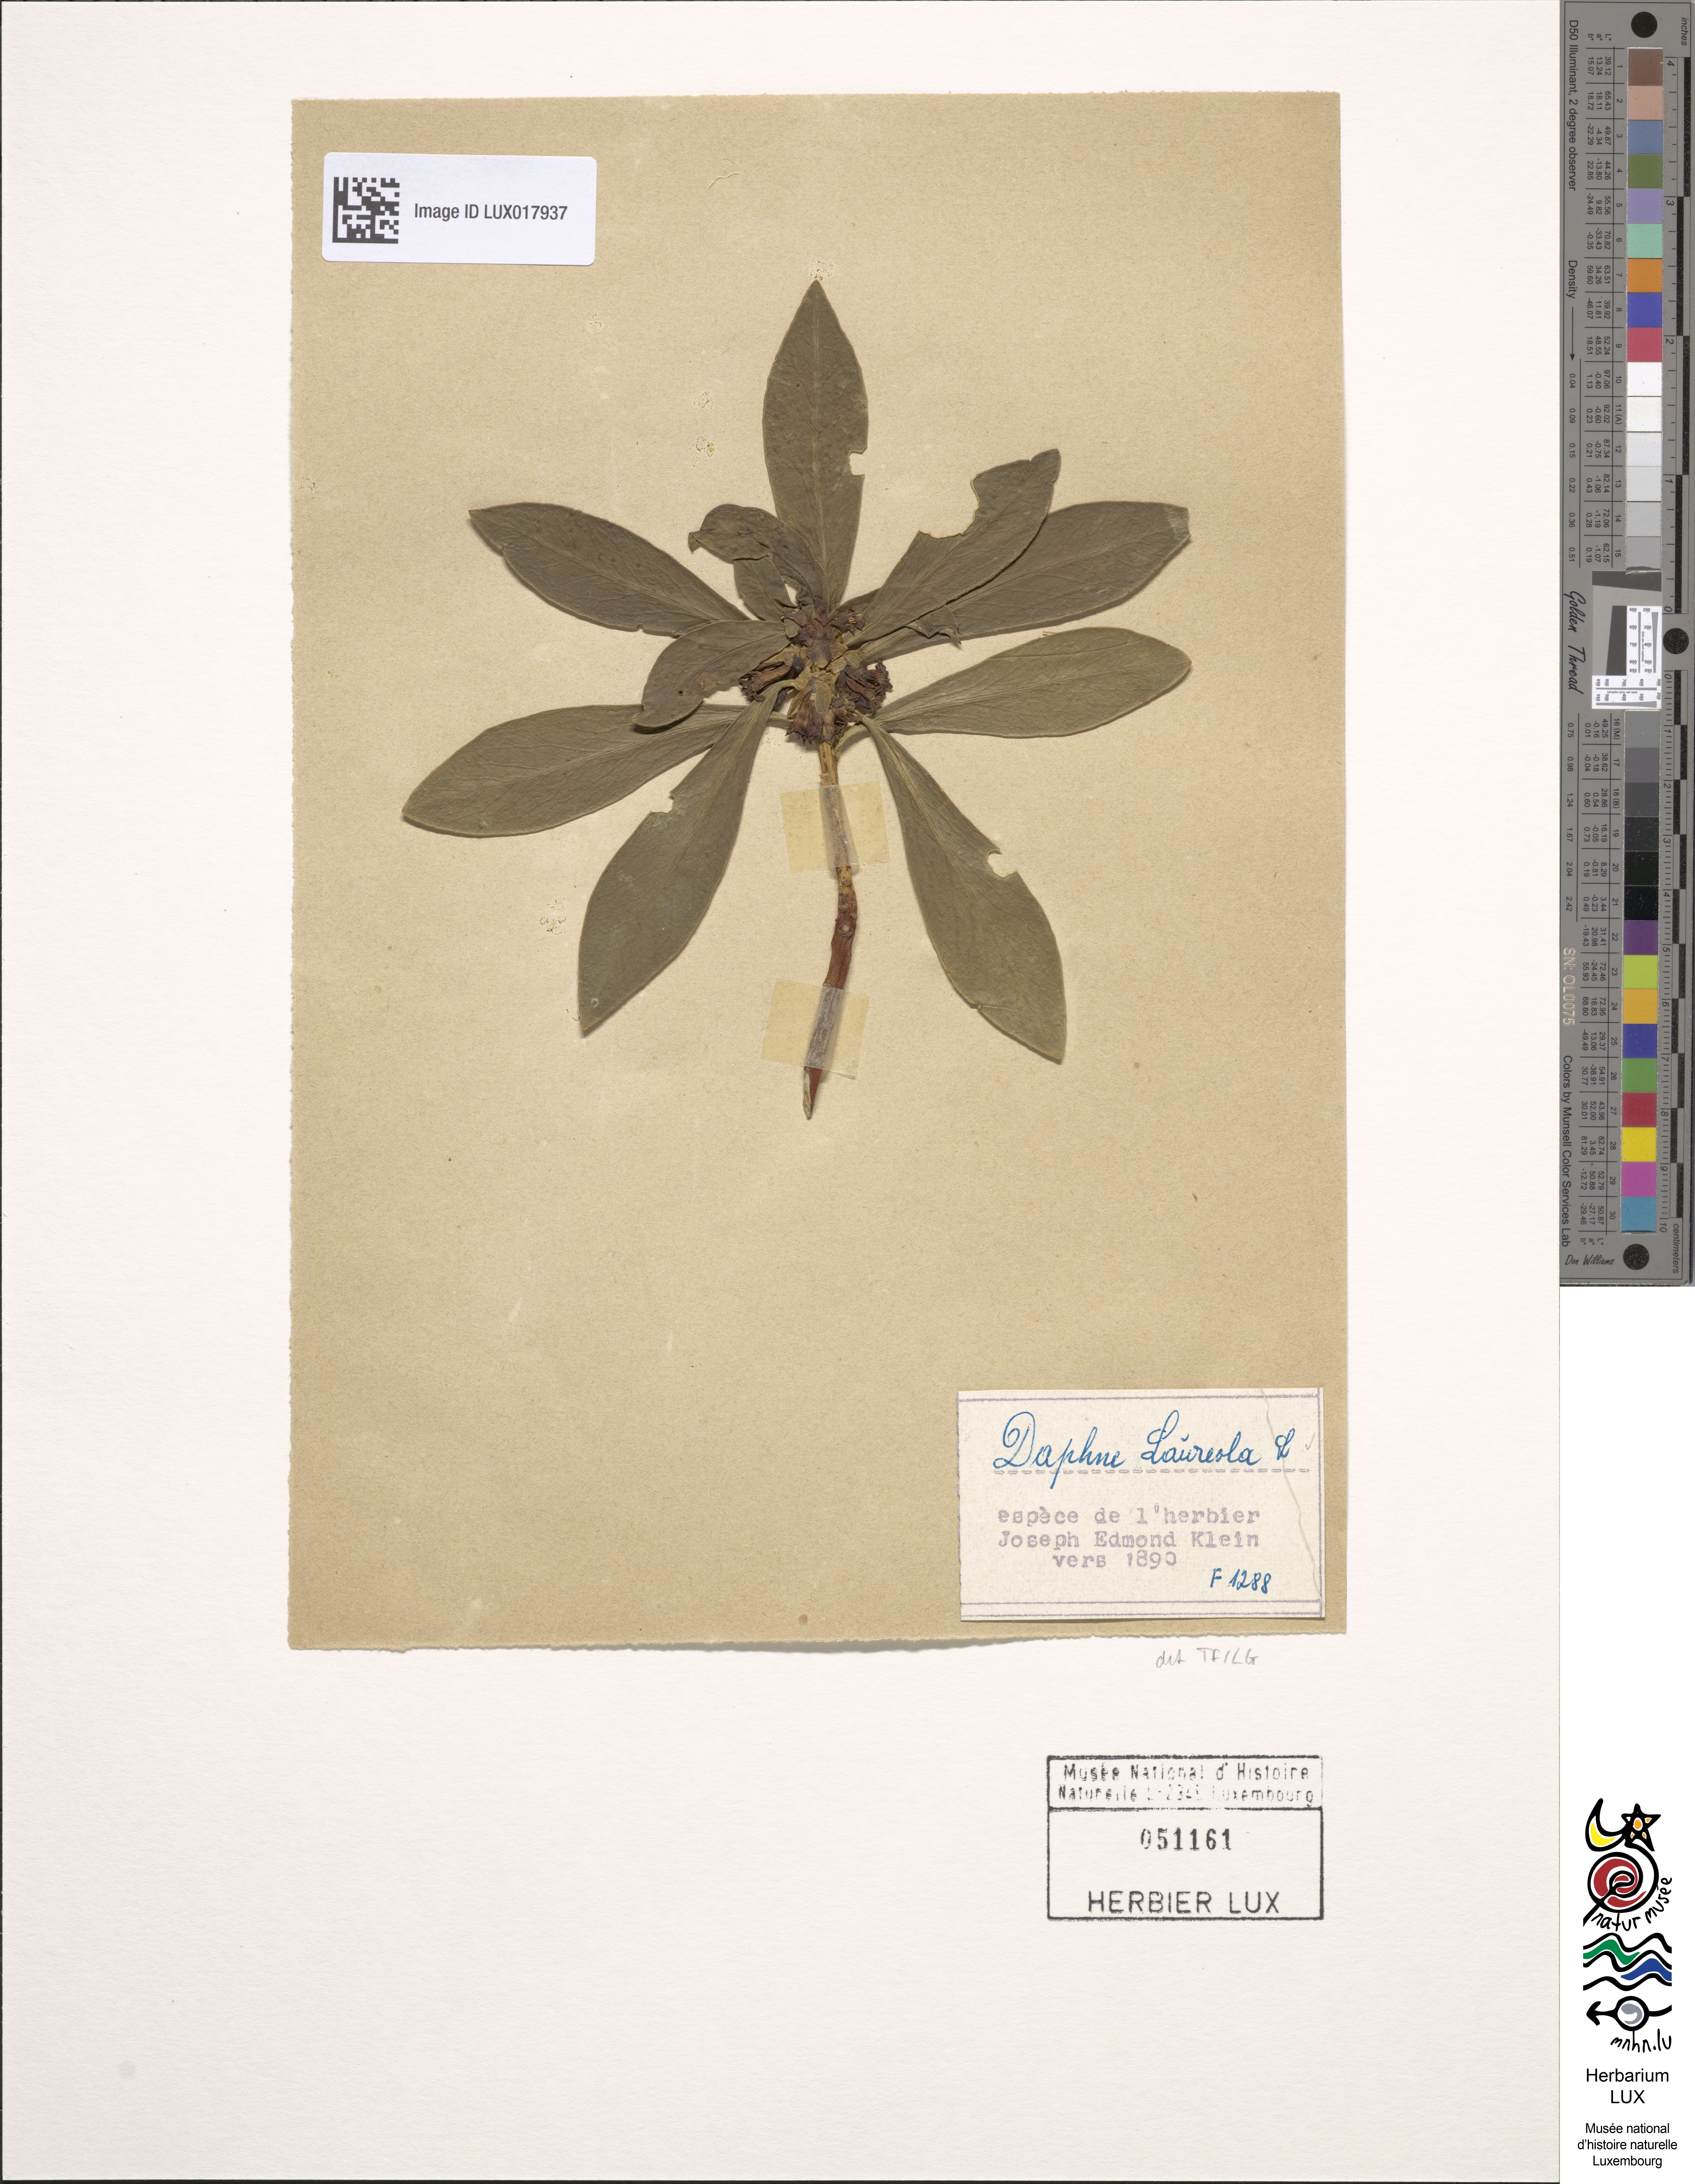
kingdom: Plantae
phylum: Tracheophyta
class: Magnoliopsida
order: Malvales
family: Thymelaeaceae
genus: Daphne
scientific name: Daphne laureola
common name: Spurge-laurel
